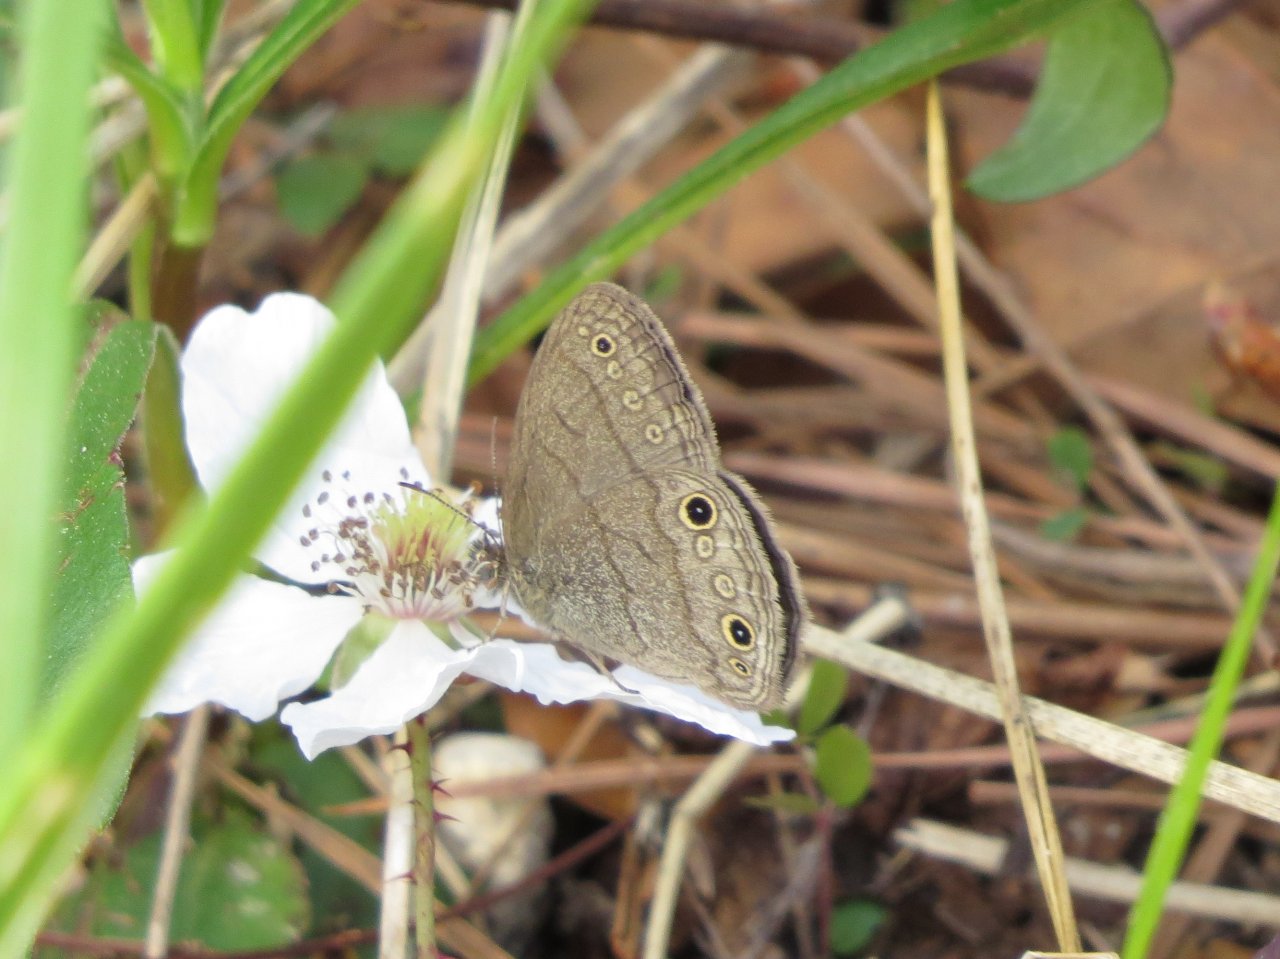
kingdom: Animalia
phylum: Arthropoda
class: Insecta
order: Lepidoptera
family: Nymphalidae
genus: Hermeuptychia
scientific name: Hermeuptychia hermes
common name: Carolina Satyr
